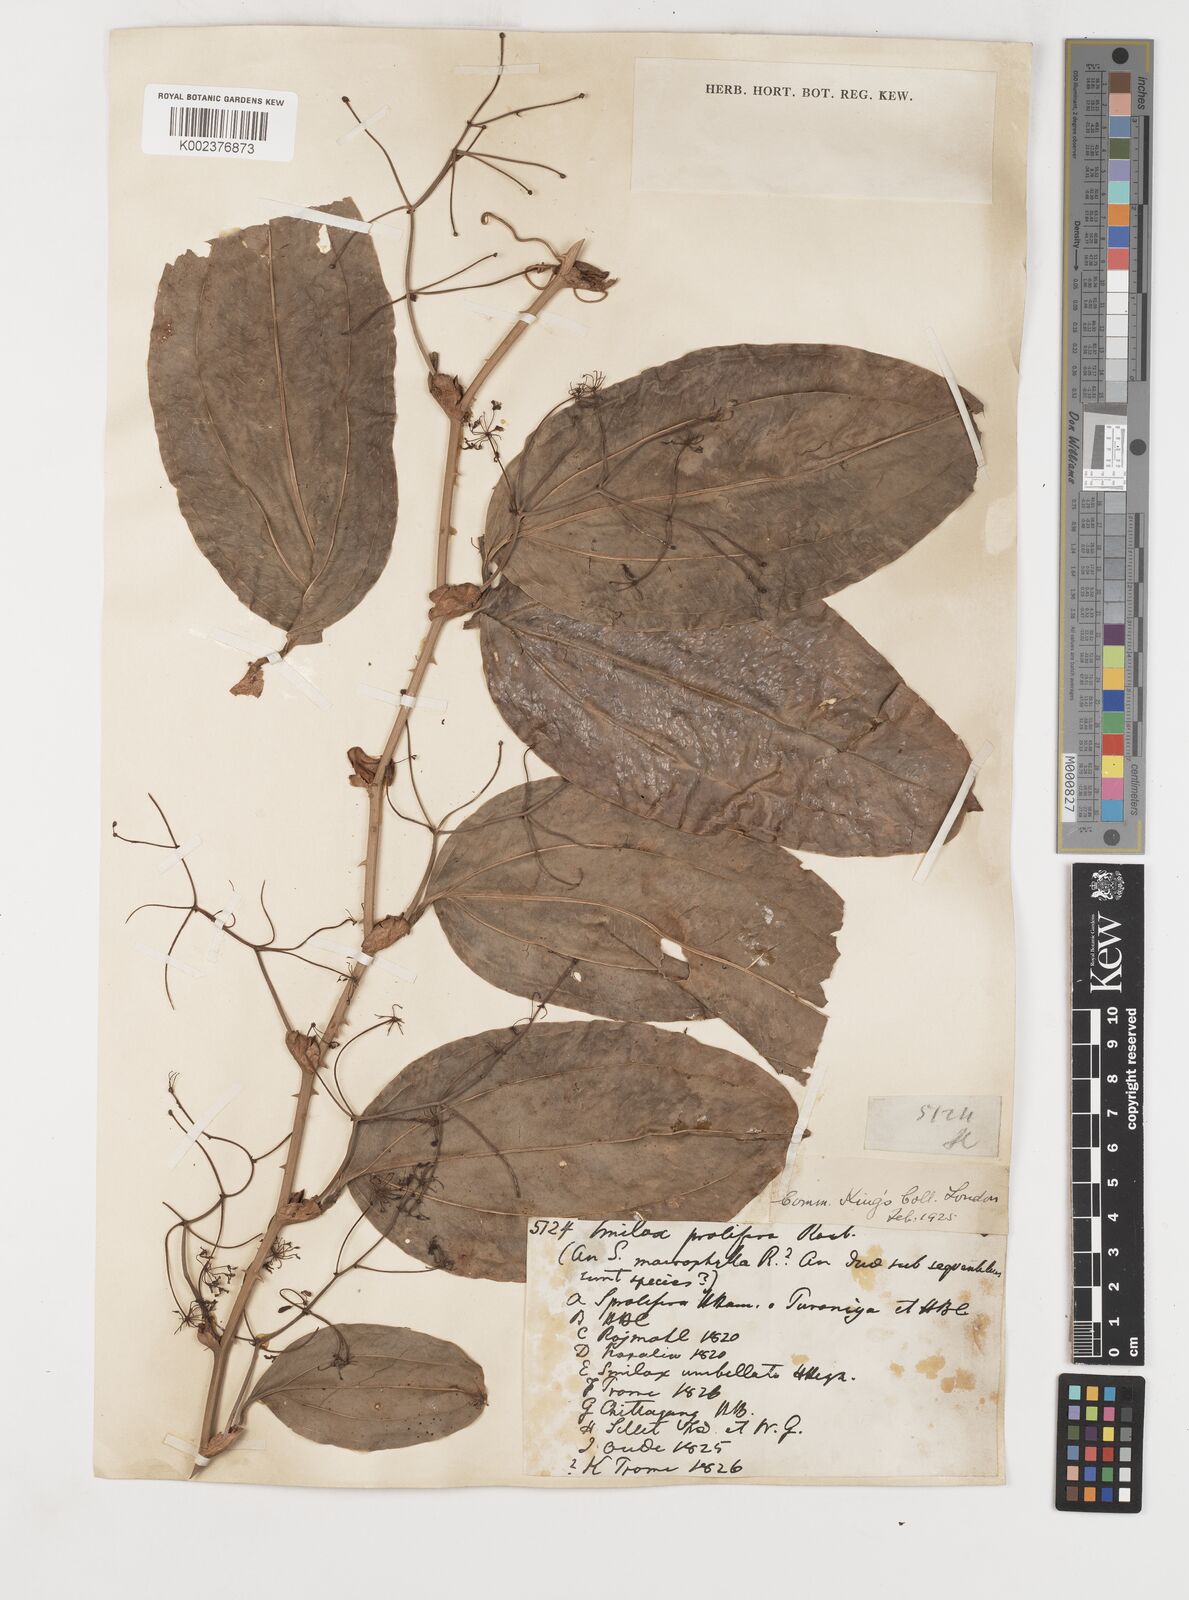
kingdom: Plantae
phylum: Tracheophyta
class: Liliopsida
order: Liliales
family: Smilacaceae
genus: Smilax
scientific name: Smilax prolifera
